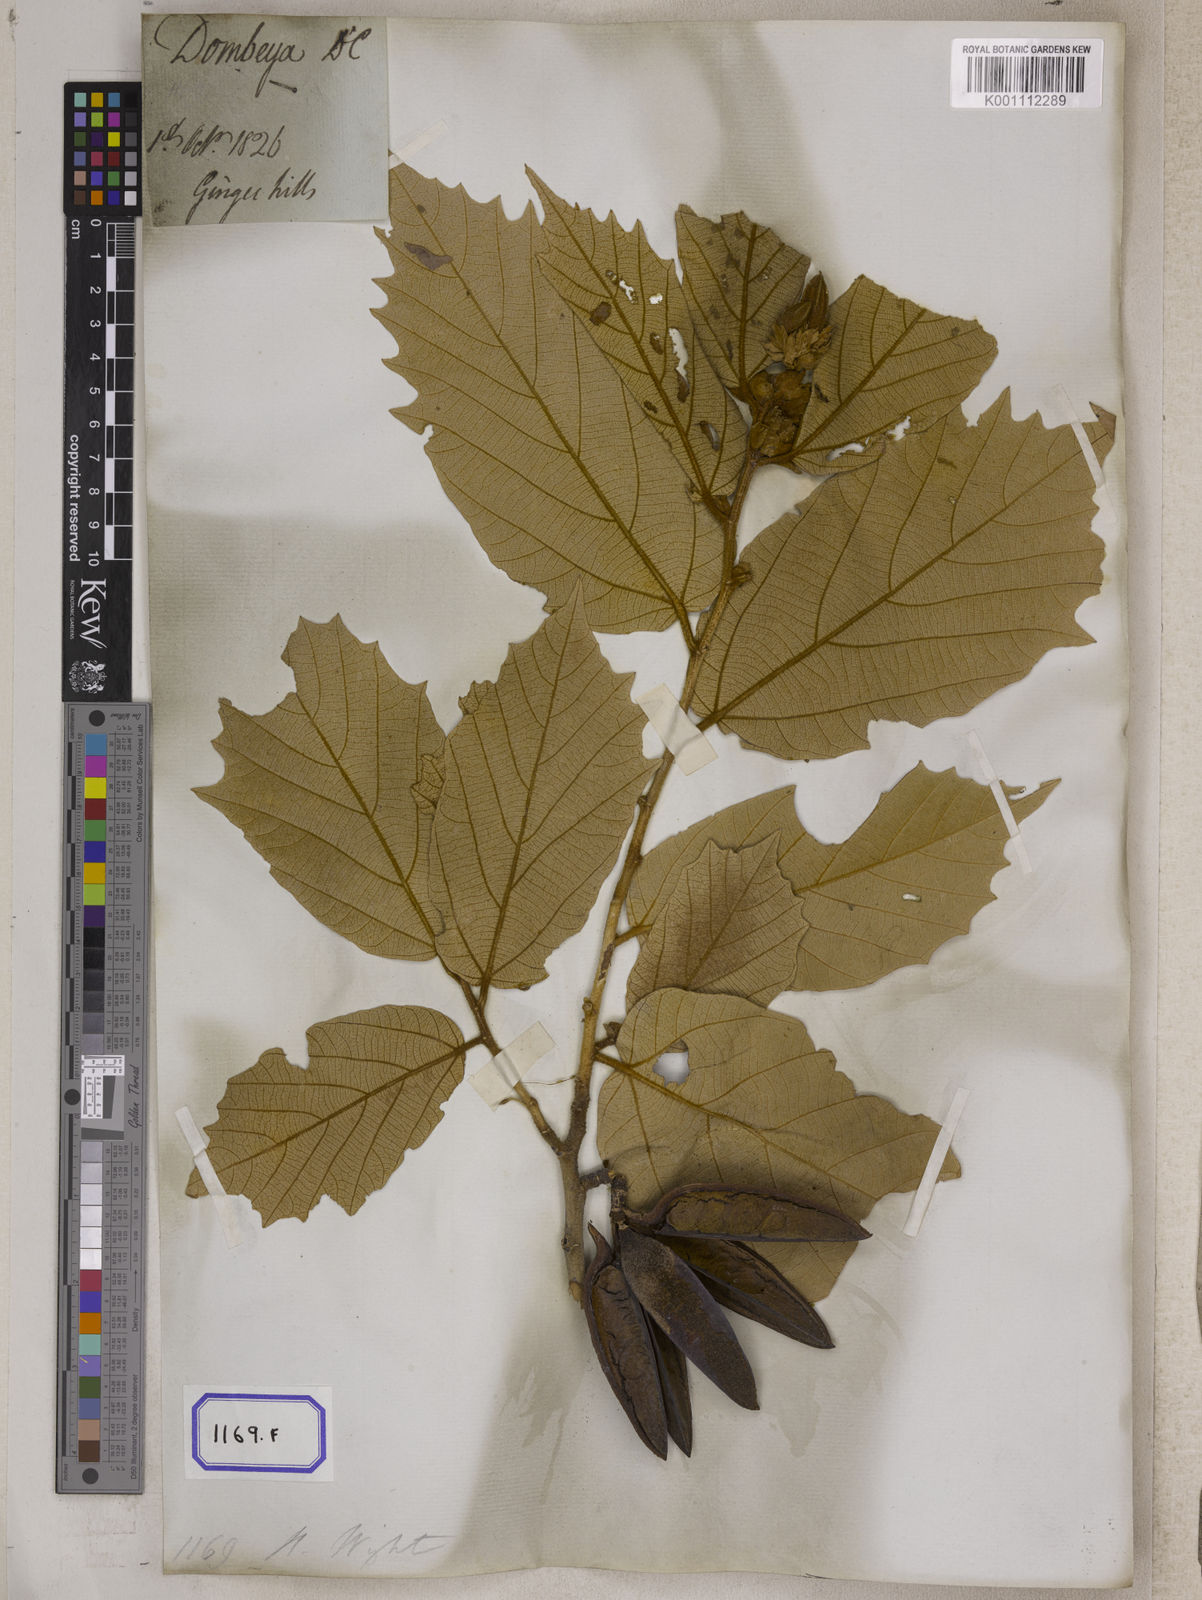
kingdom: Plantae
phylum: Tracheophyta
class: Magnoliopsida
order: Malvales
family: Malvaceae
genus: Pterospermum
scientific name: Pterospermum
